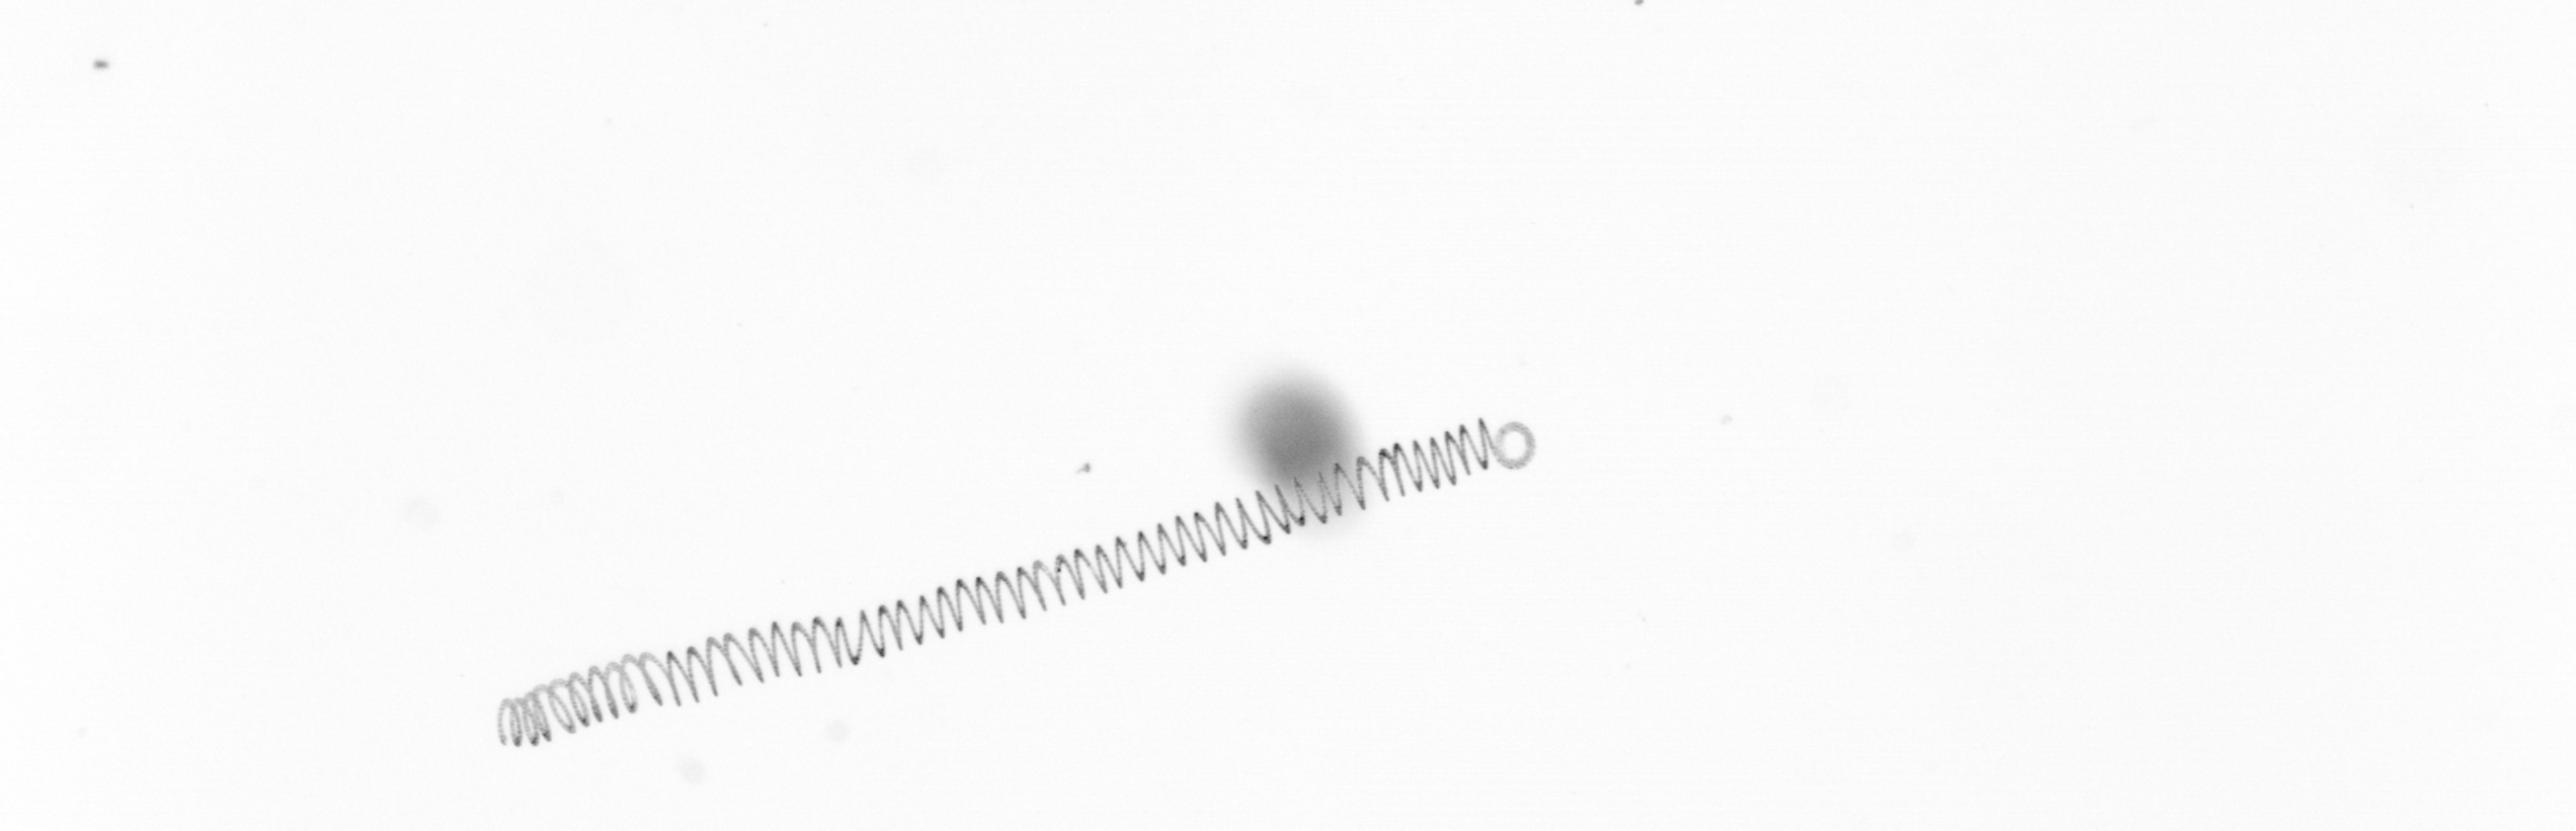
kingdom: Chromista
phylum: Ochrophyta
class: Bacillariophyceae
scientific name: Bacillariophyceae
